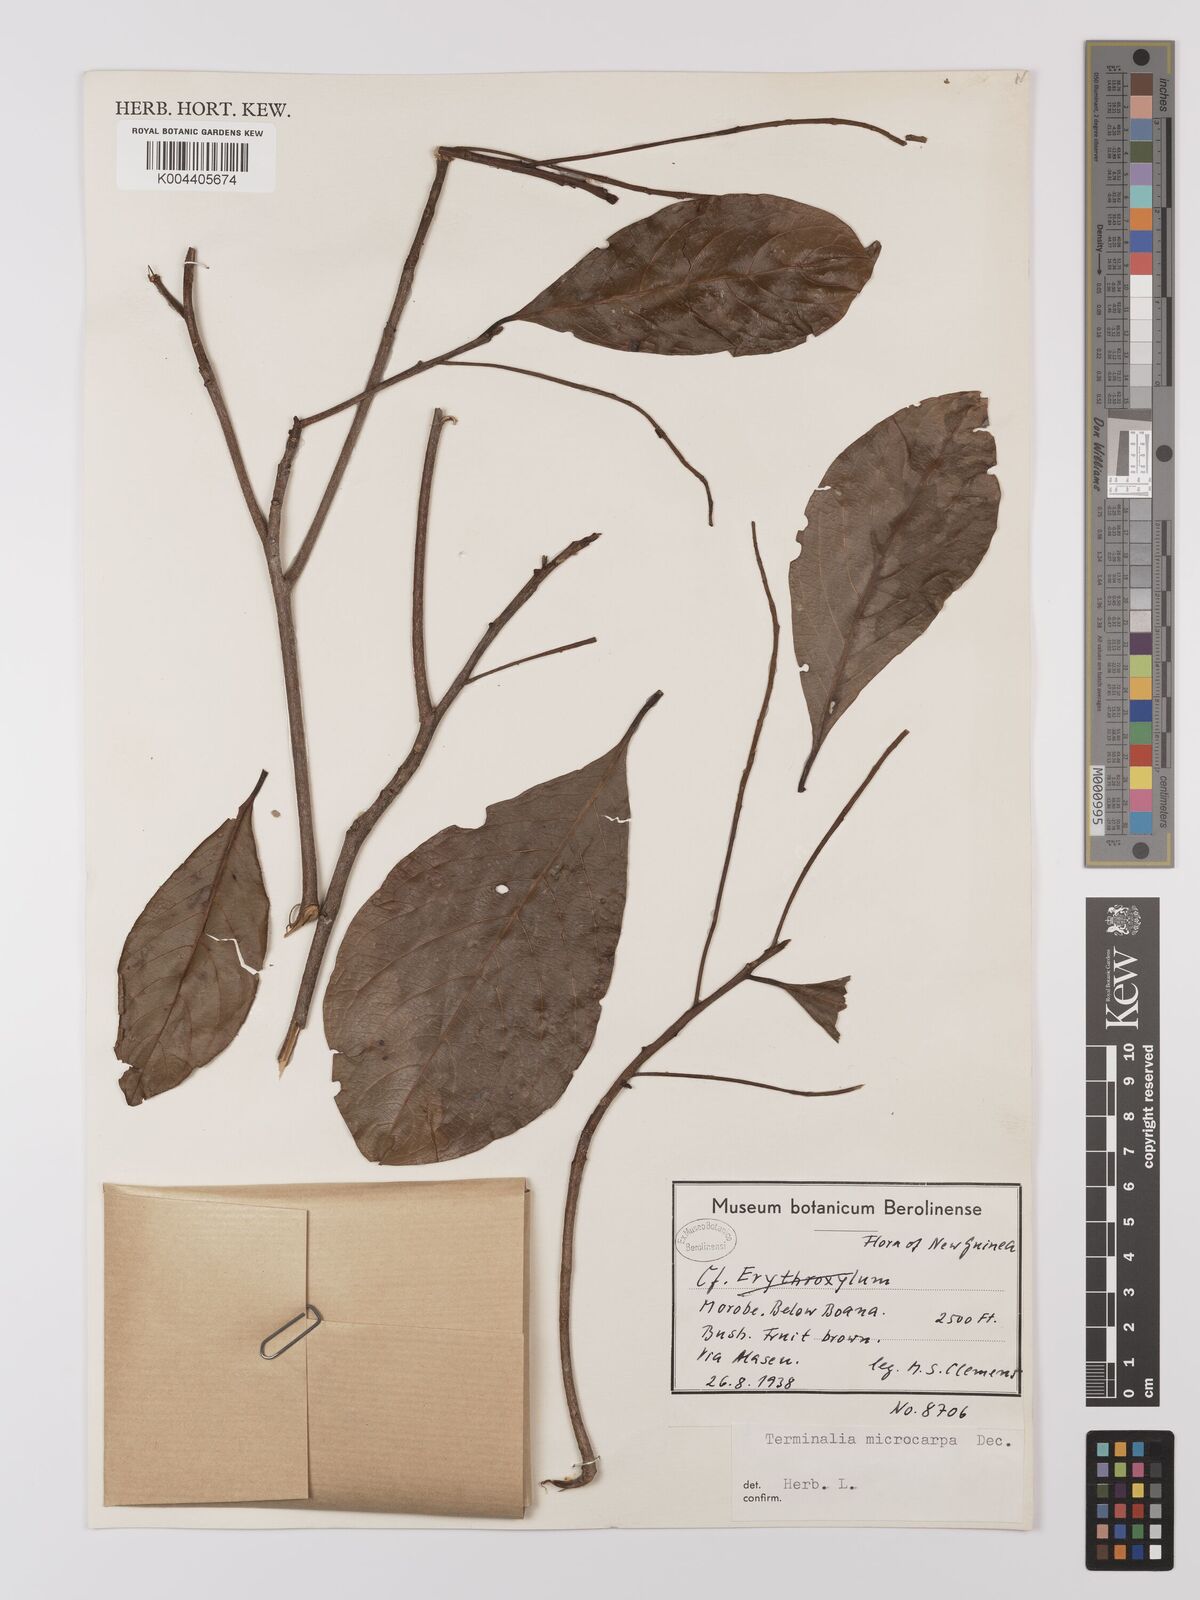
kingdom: Plantae
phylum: Tracheophyta
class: Magnoliopsida
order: Myrtales
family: Combretaceae
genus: Terminalia
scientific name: Terminalia
